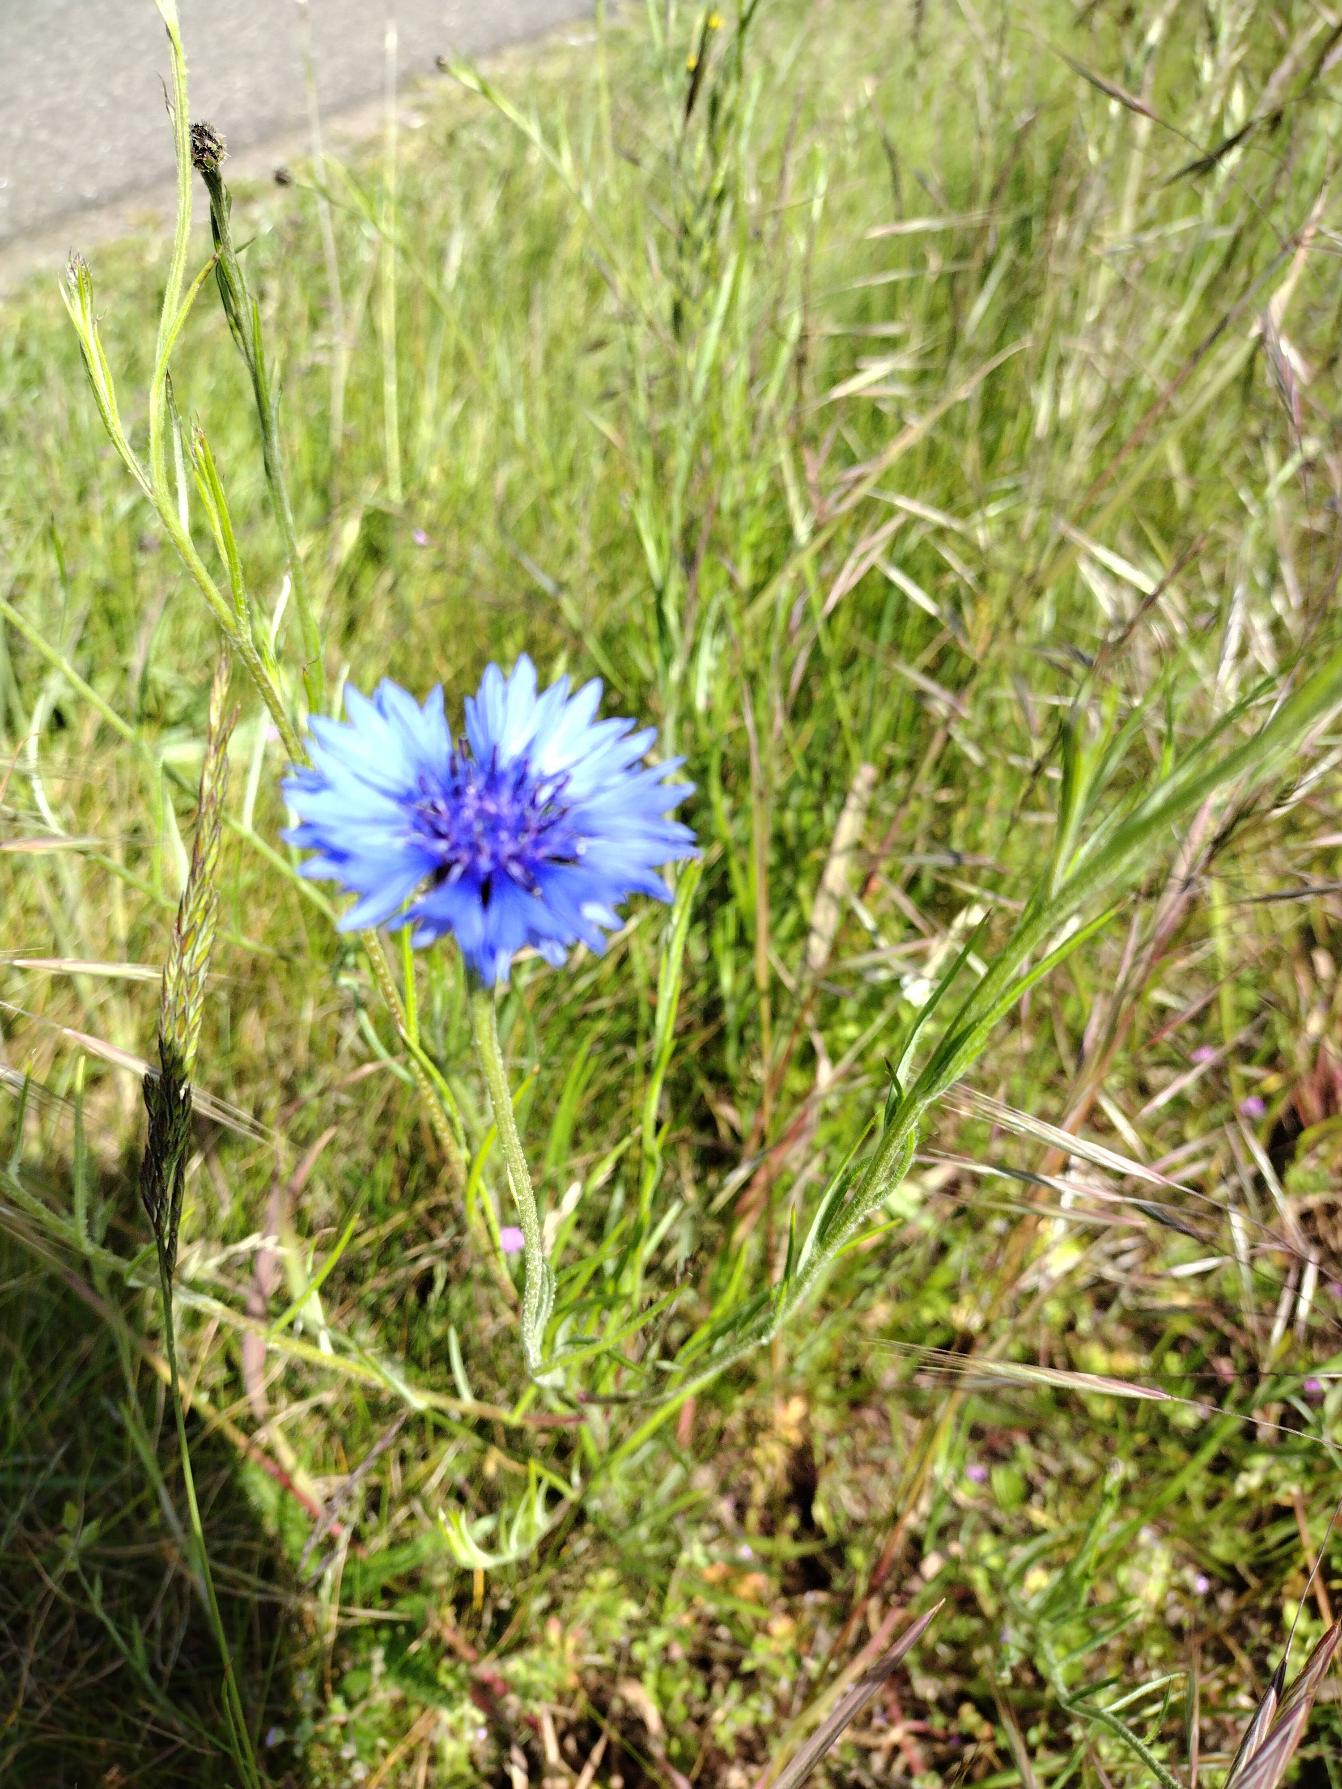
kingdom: Plantae
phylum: Tracheophyta
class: Magnoliopsida
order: Asterales
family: Asteraceae
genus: Centaurea
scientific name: Centaurea cyanus
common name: Kornblomst
